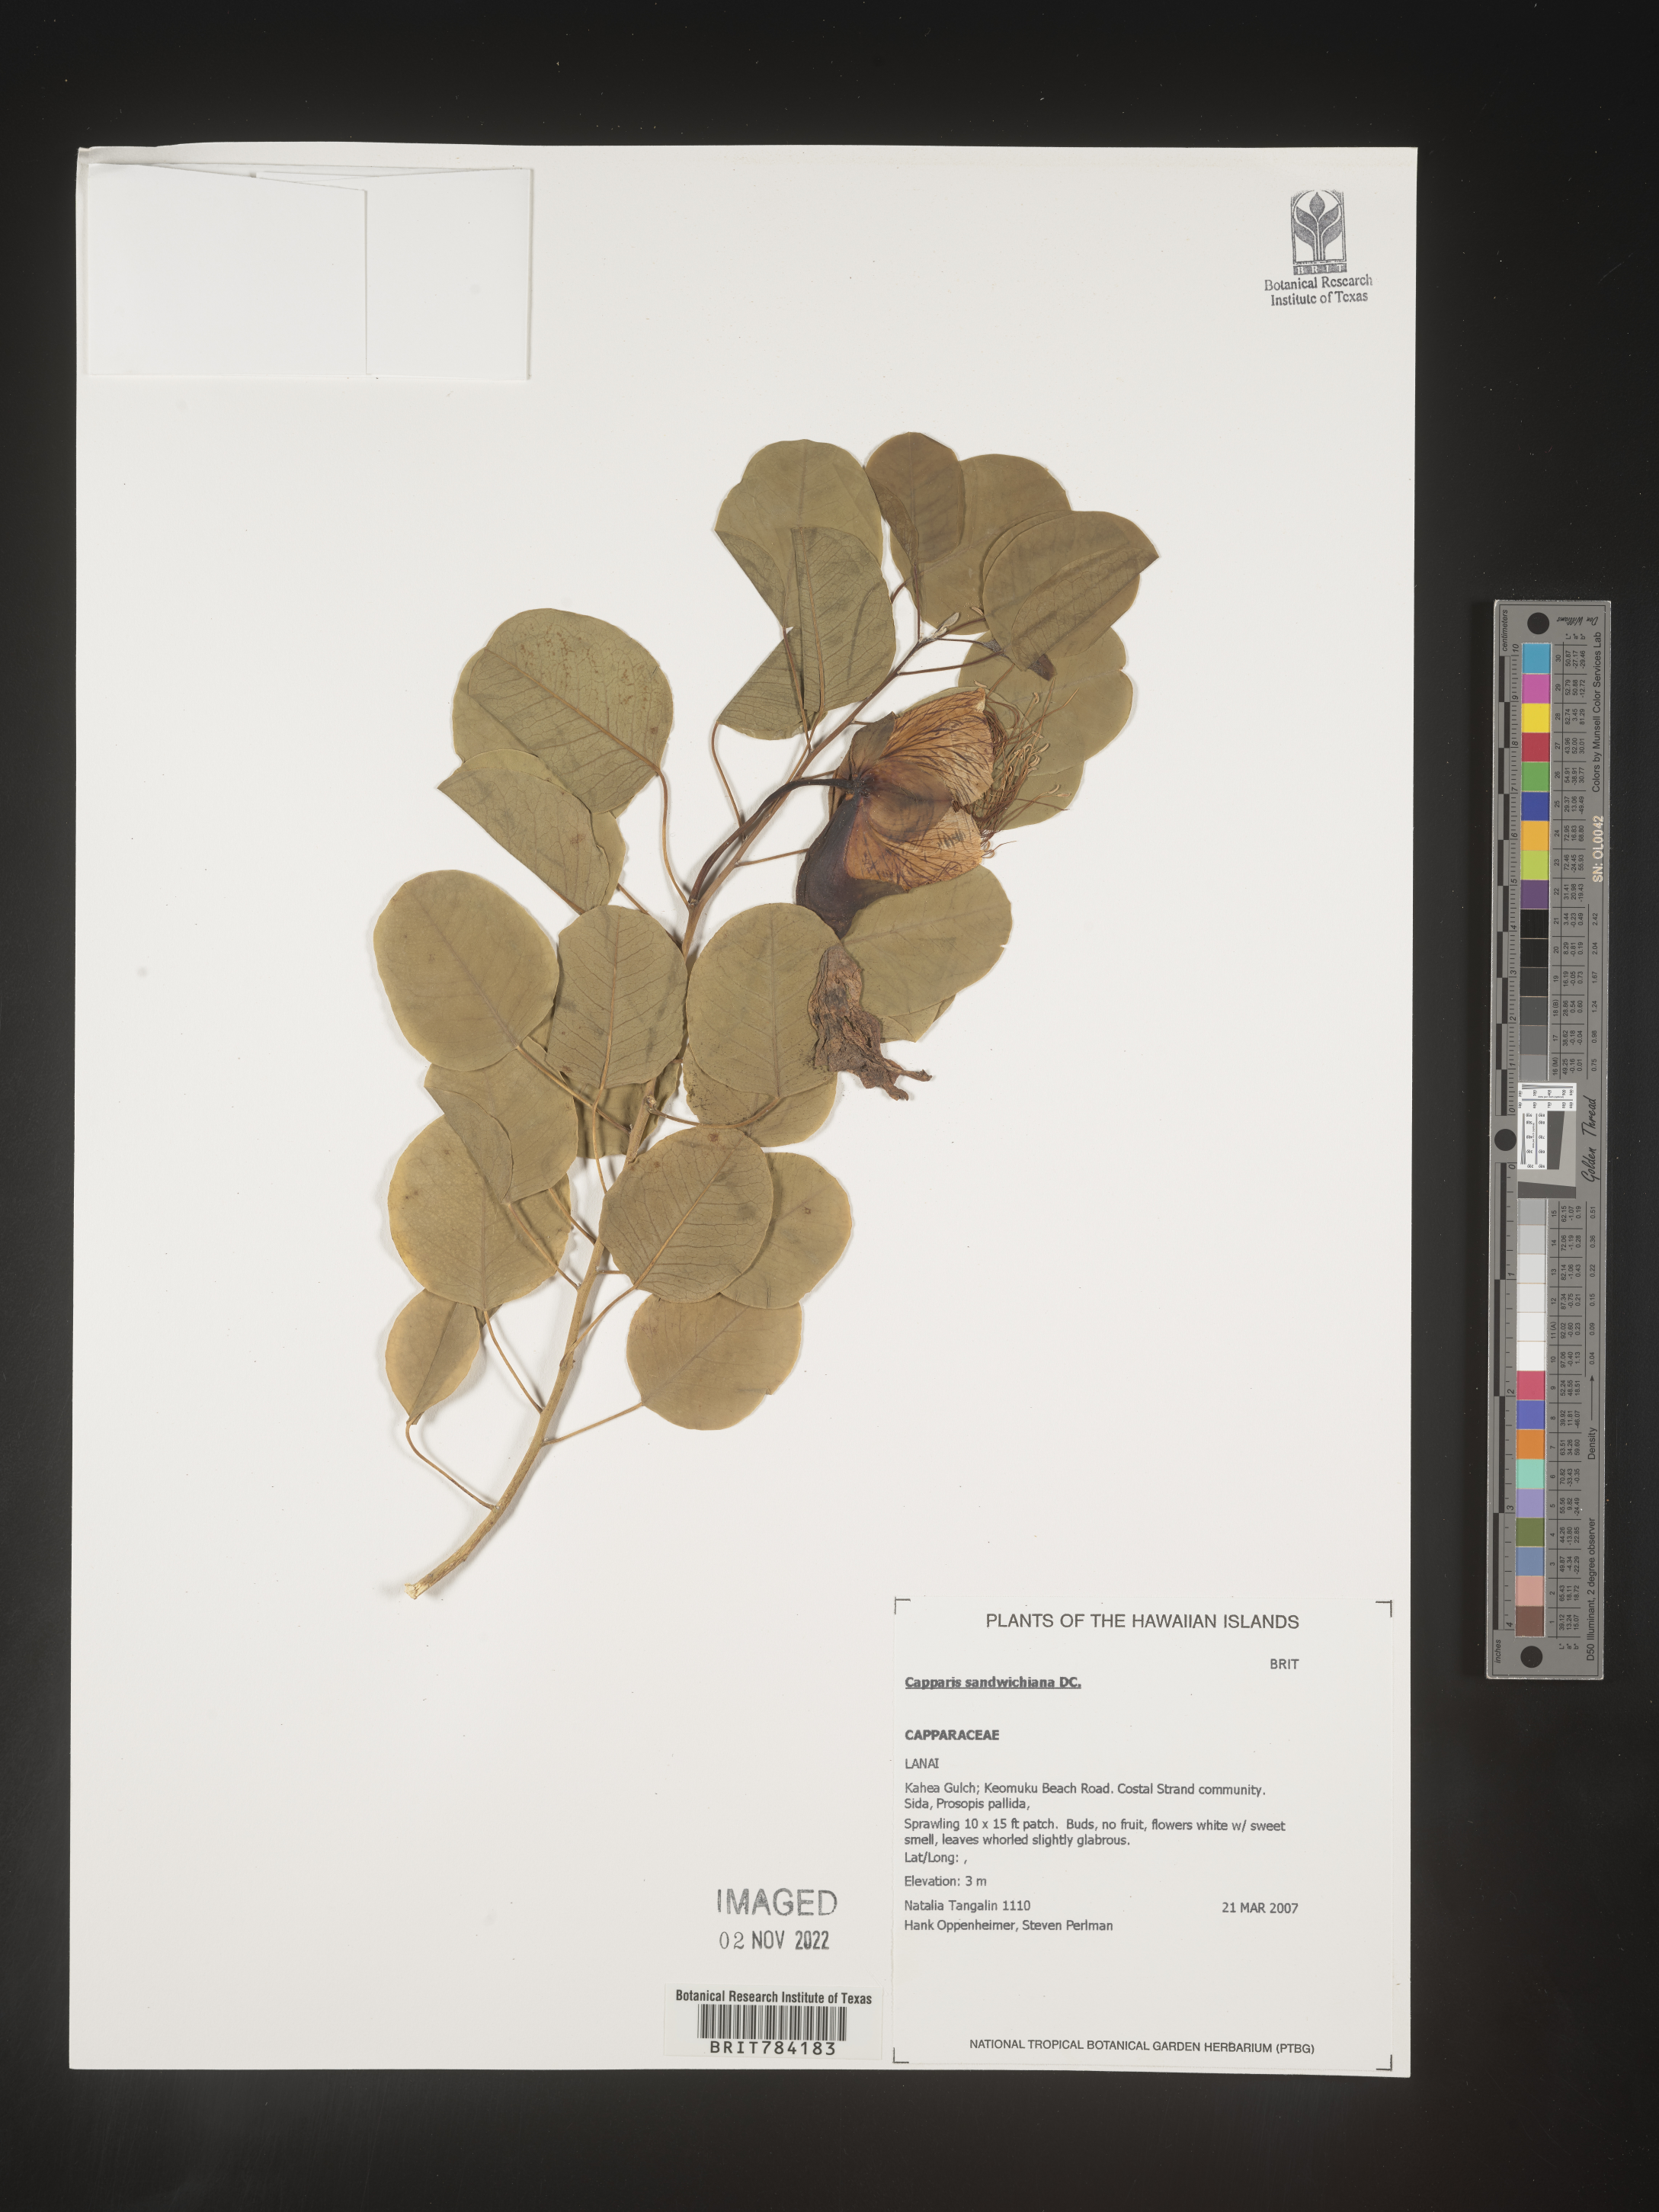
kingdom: Plantae
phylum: Tracheophyta
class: Magnoliopsida
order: Brassicales
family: Capparaceae
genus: Capparis
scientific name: Capparis
